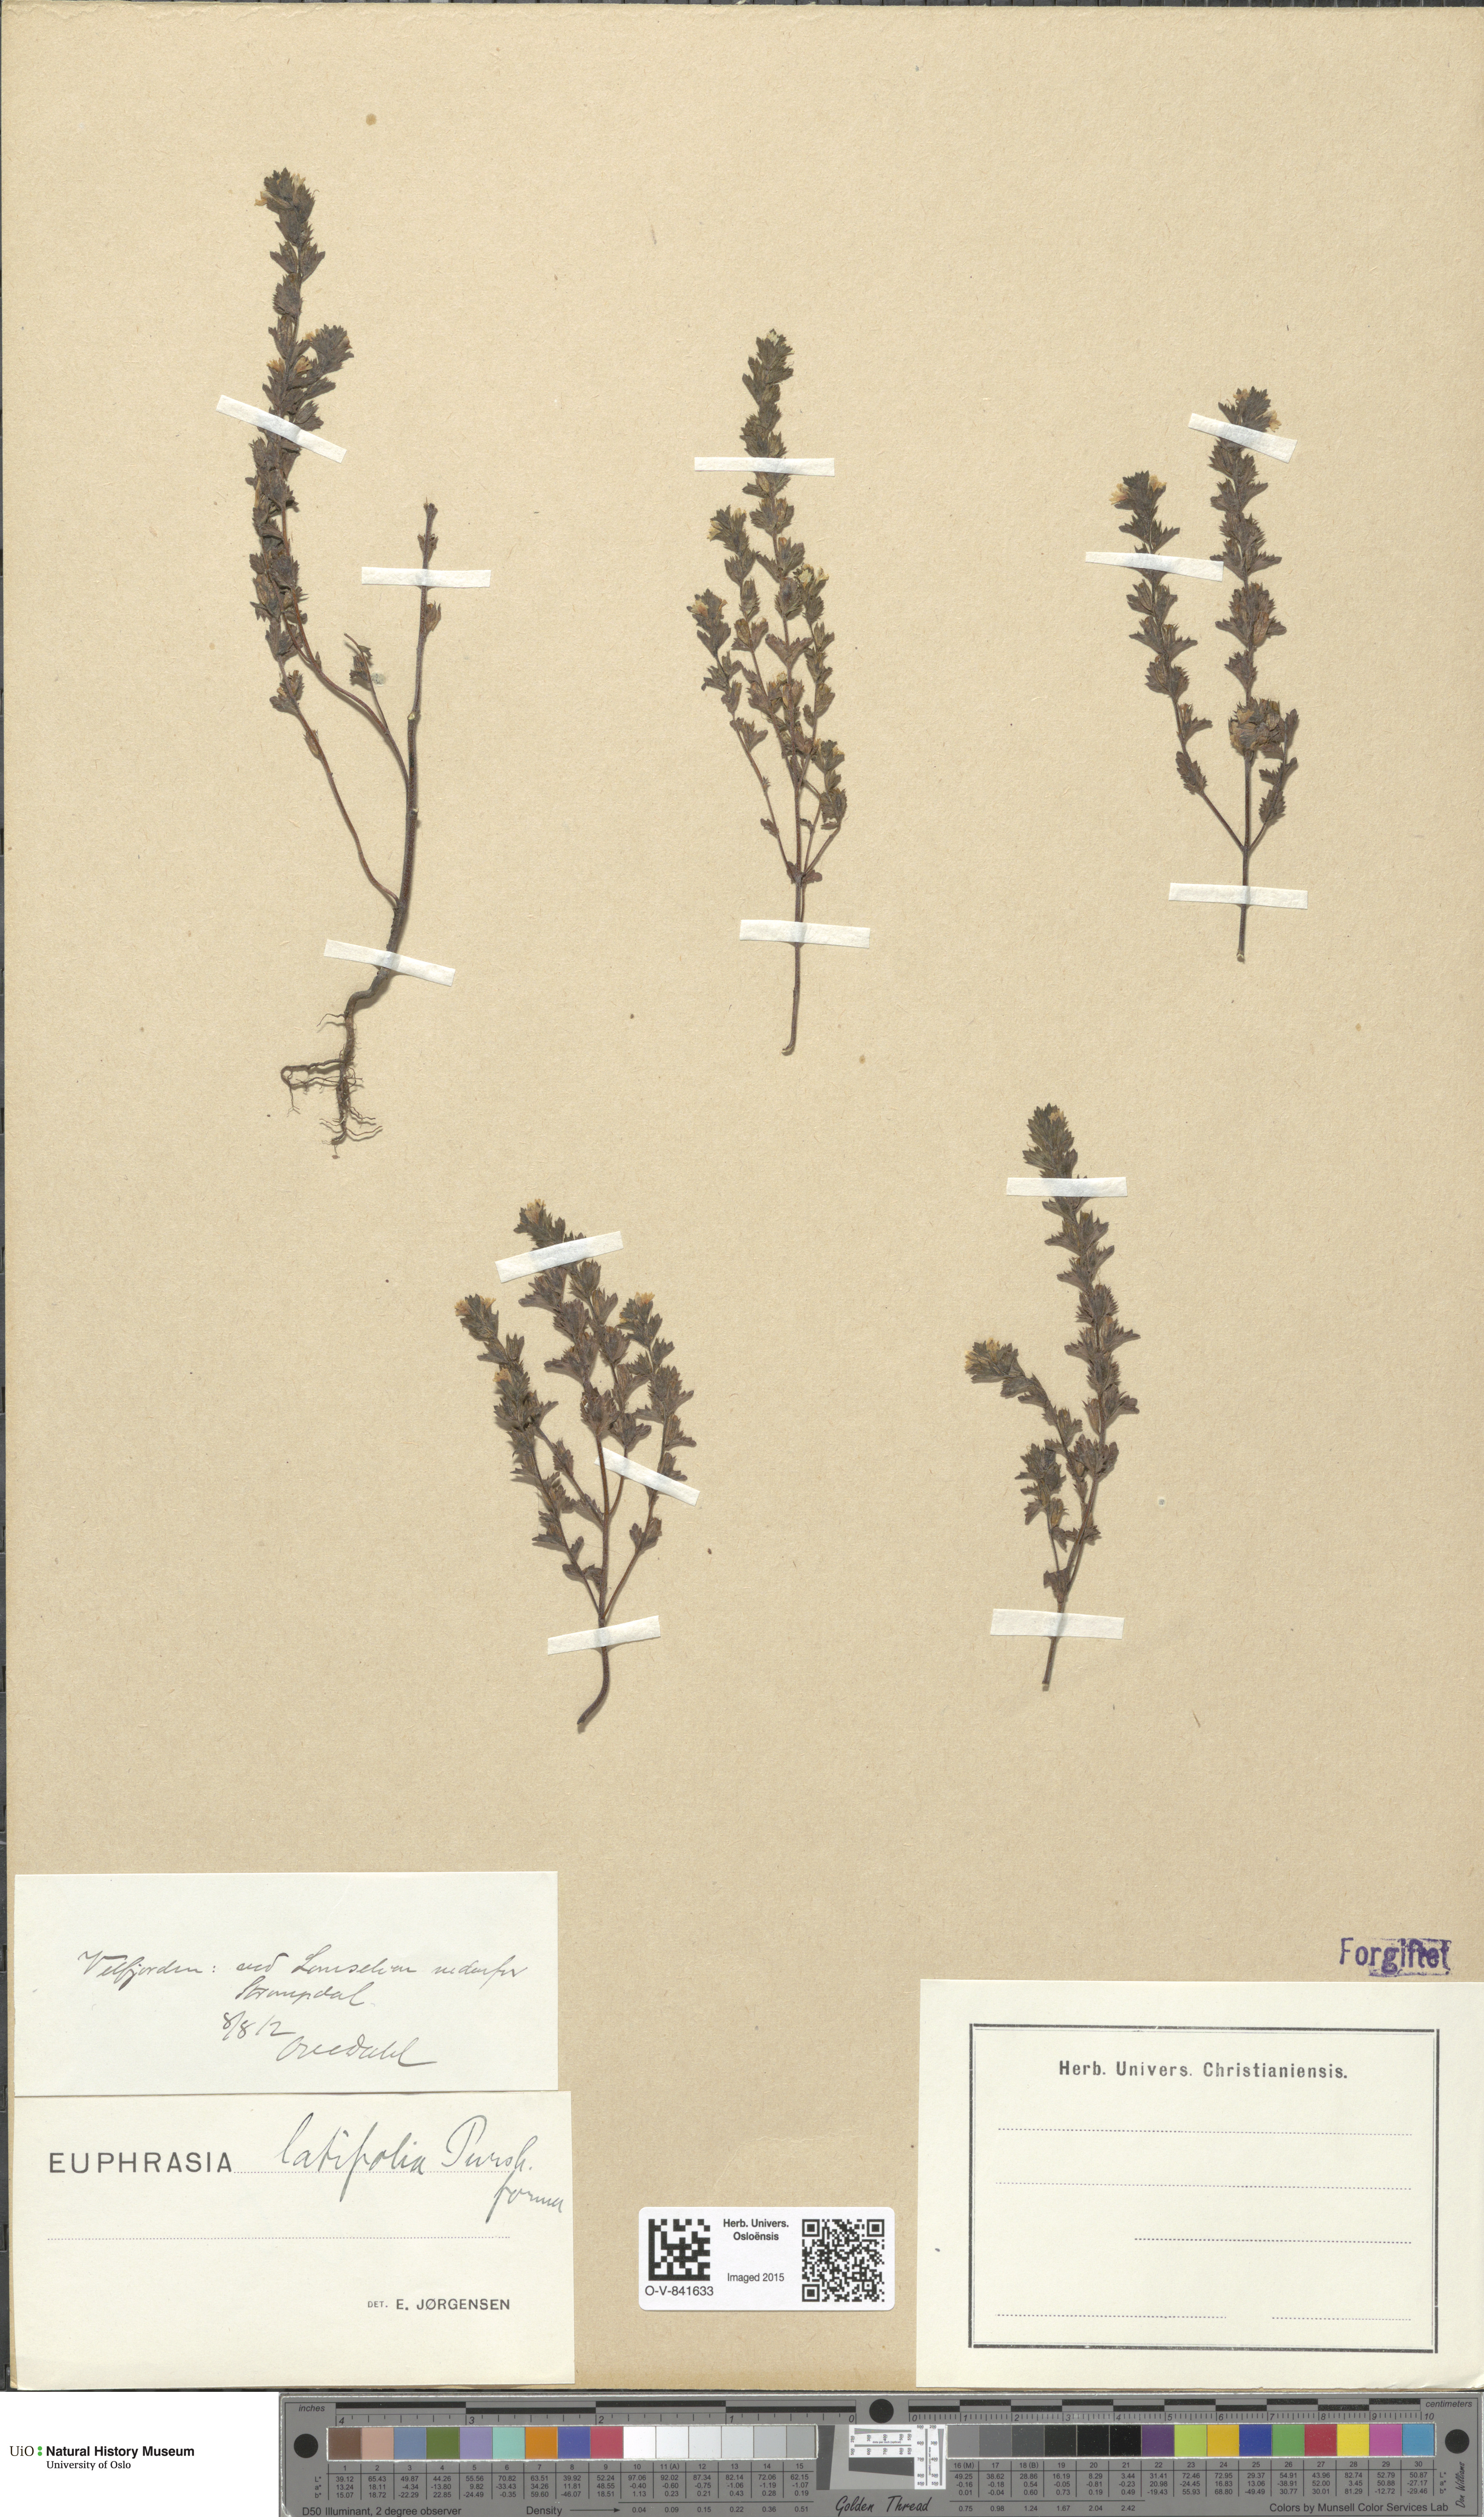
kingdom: Plantae
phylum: Tracheophyta
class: Magnoliopsida
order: Lamiales
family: Orobanchaceae
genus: Euphrasia
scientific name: Euphrasia wettsteinii
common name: Wettstein's eyebright
